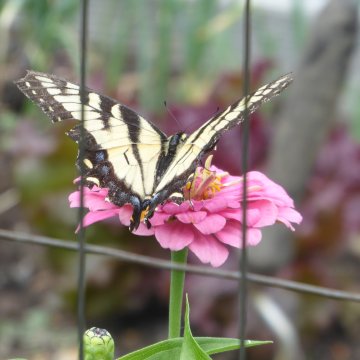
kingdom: Animalia
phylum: Arthropoda
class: Insecta
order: Lepidoptera
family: Papilionidae
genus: Pterourus
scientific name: Pterourus
